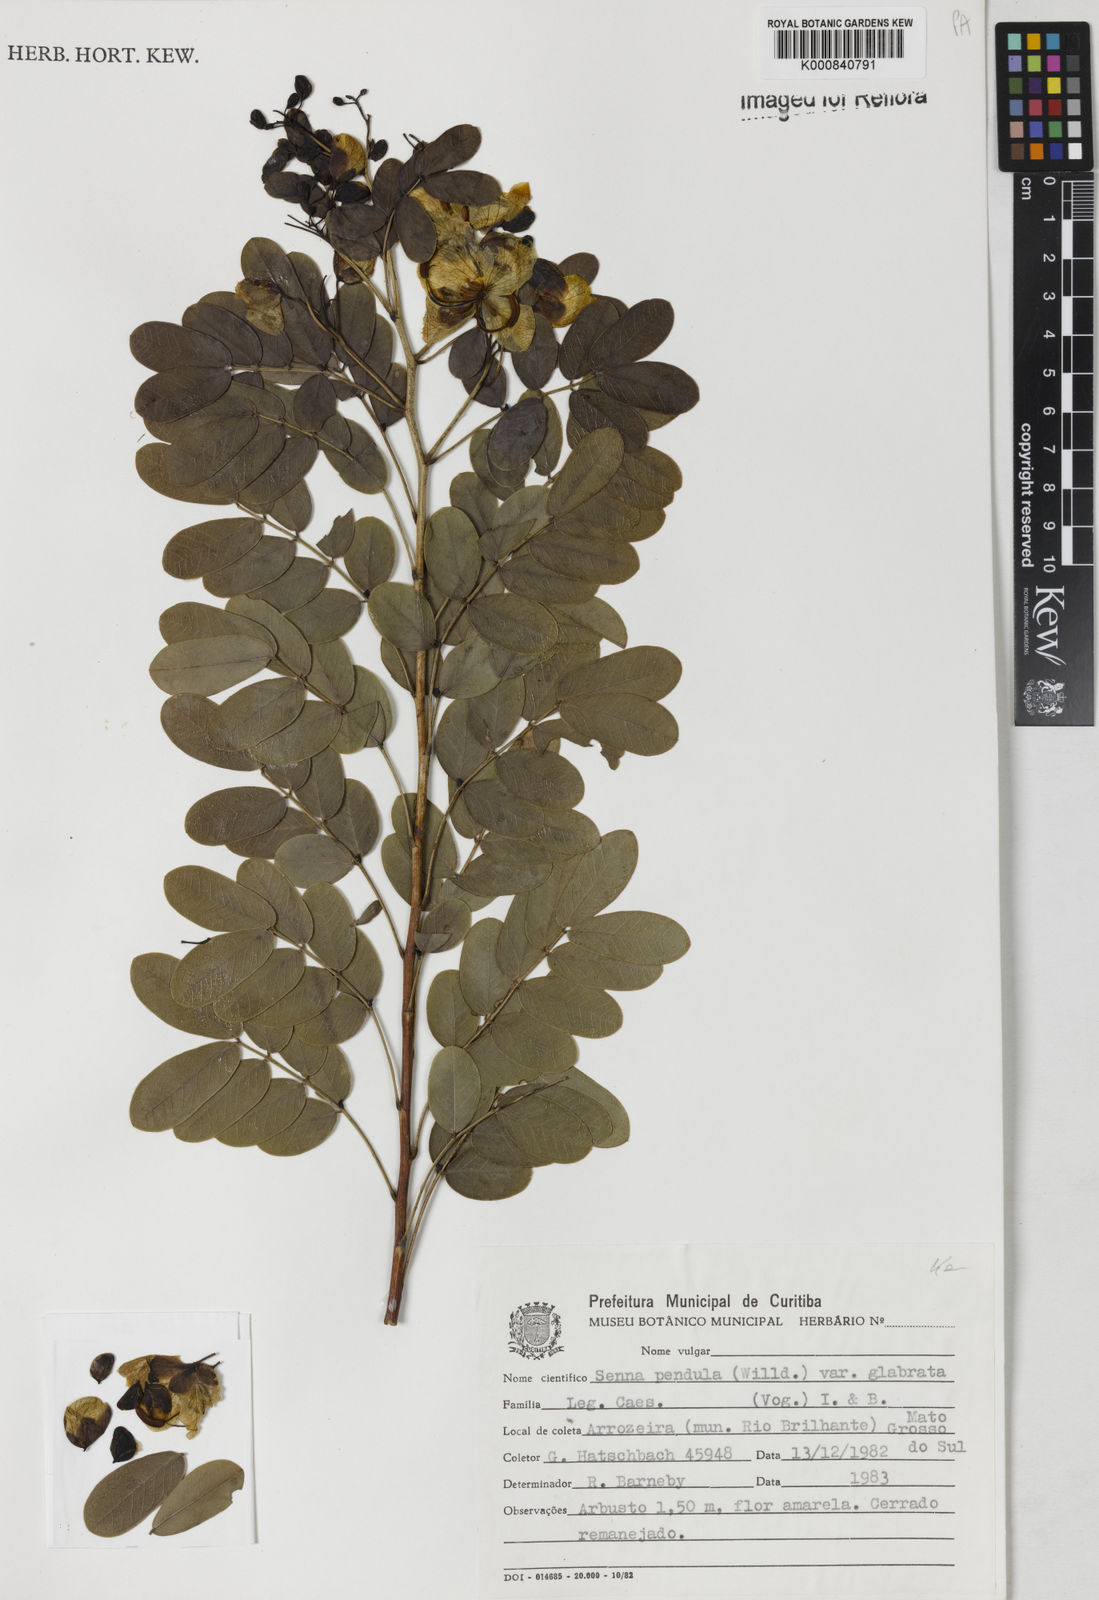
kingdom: Plantae
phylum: Tracheophyta
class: Magnoliopsida
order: Fabales
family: Fabaceae
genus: Senna
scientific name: Senna pendula
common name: Easter cassia
